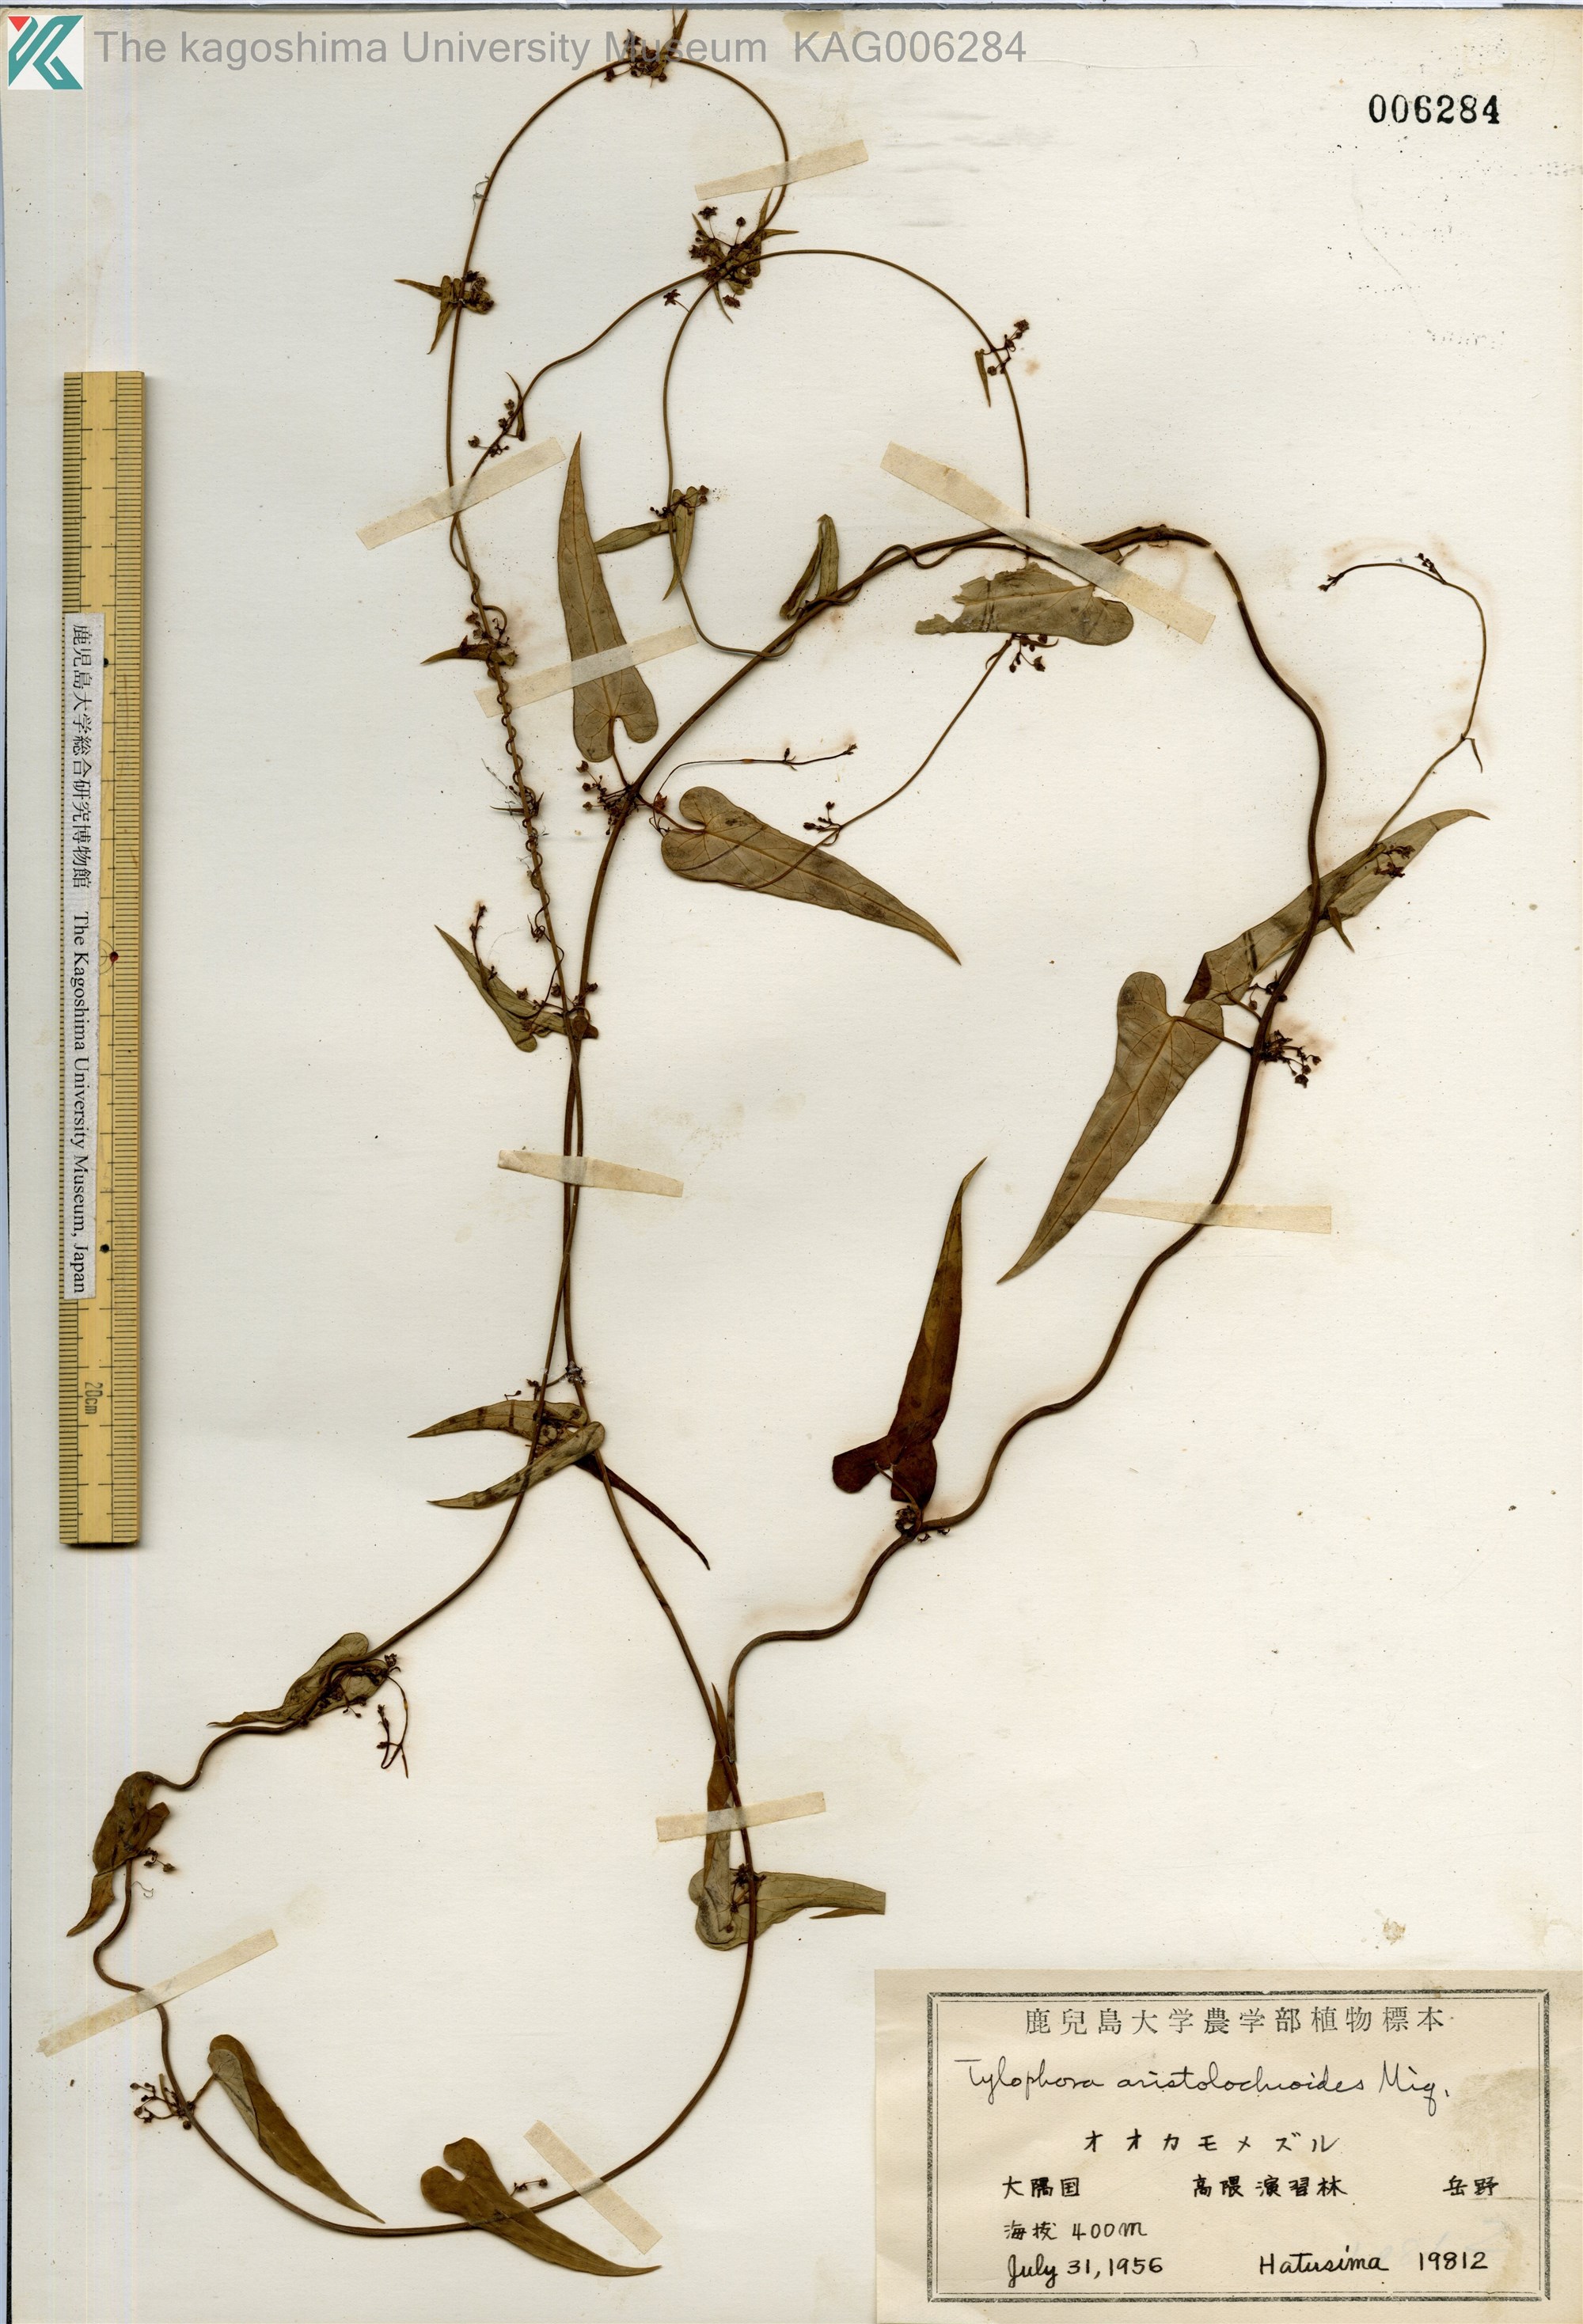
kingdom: Plantae
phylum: Tracheophyta
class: Magnoliopsida
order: Gentianales
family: Apocynaceae
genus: Vincetoxicum
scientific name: Vincetoxicum aristolochioides
